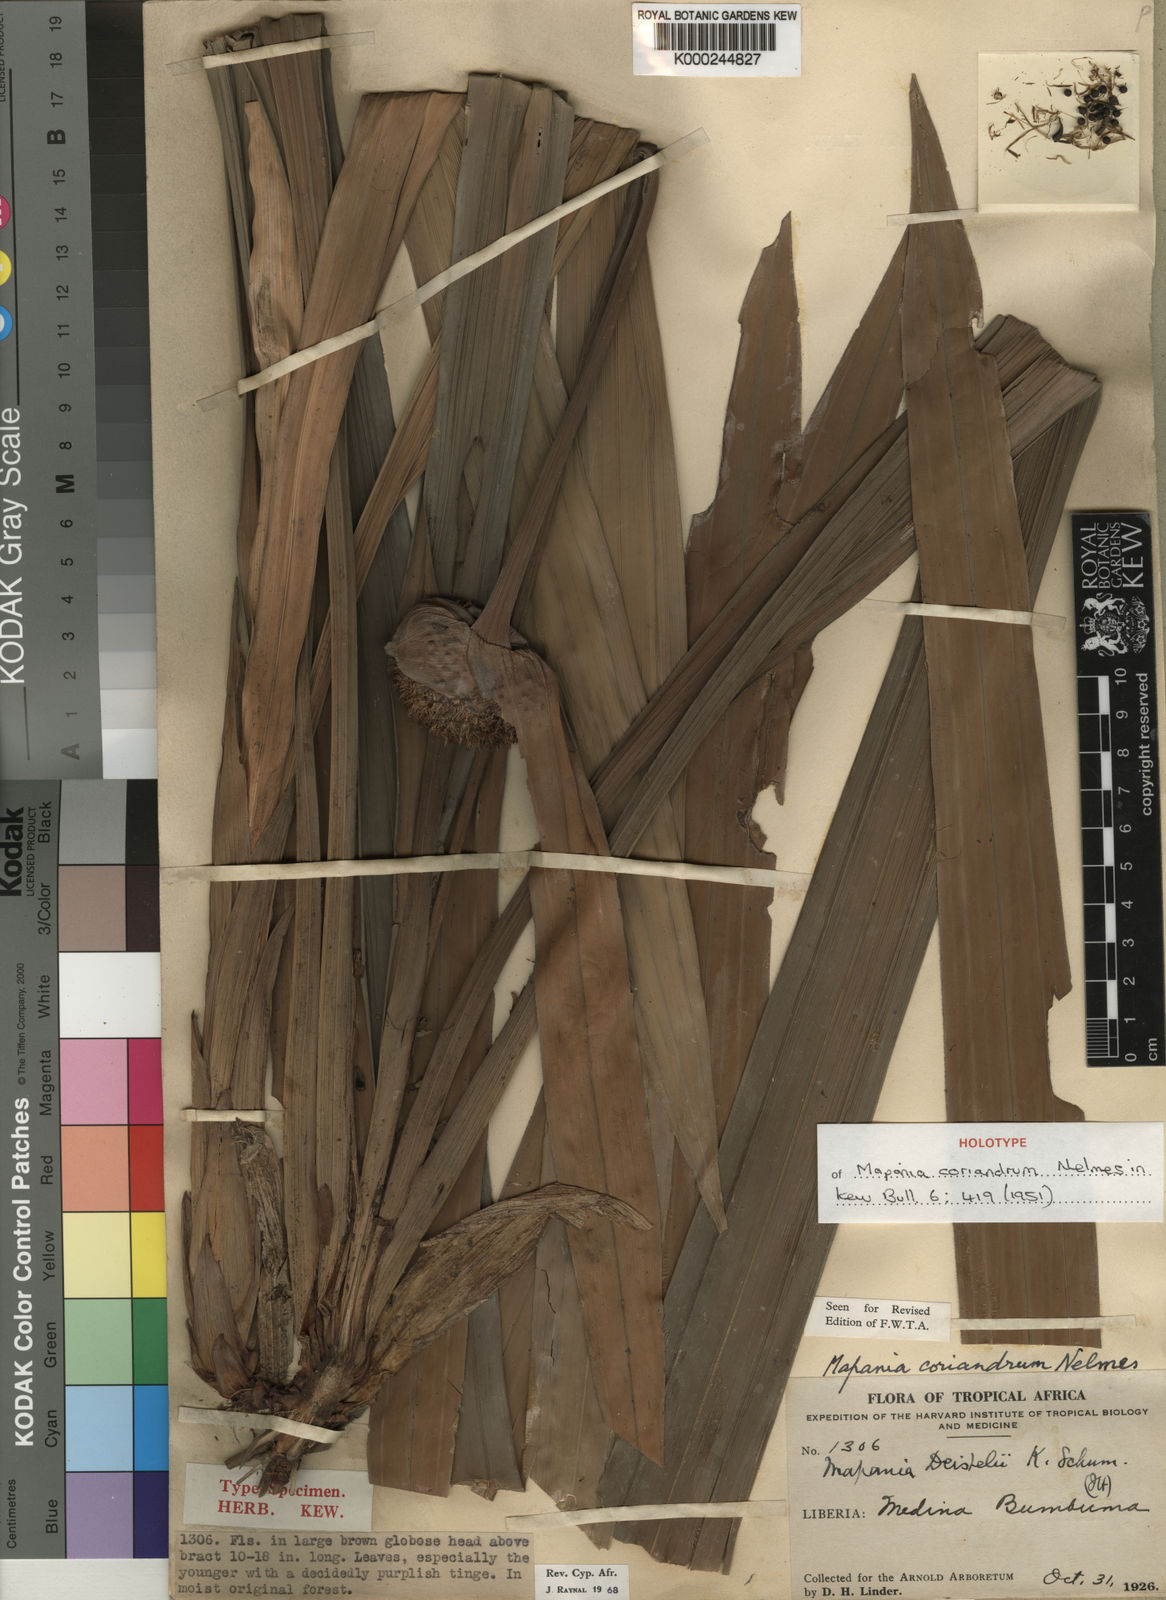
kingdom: Plantae
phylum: Tracheophyta
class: Liliopsida
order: Poales
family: Cyperaceae
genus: Mapania
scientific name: Mapania coriandrum
